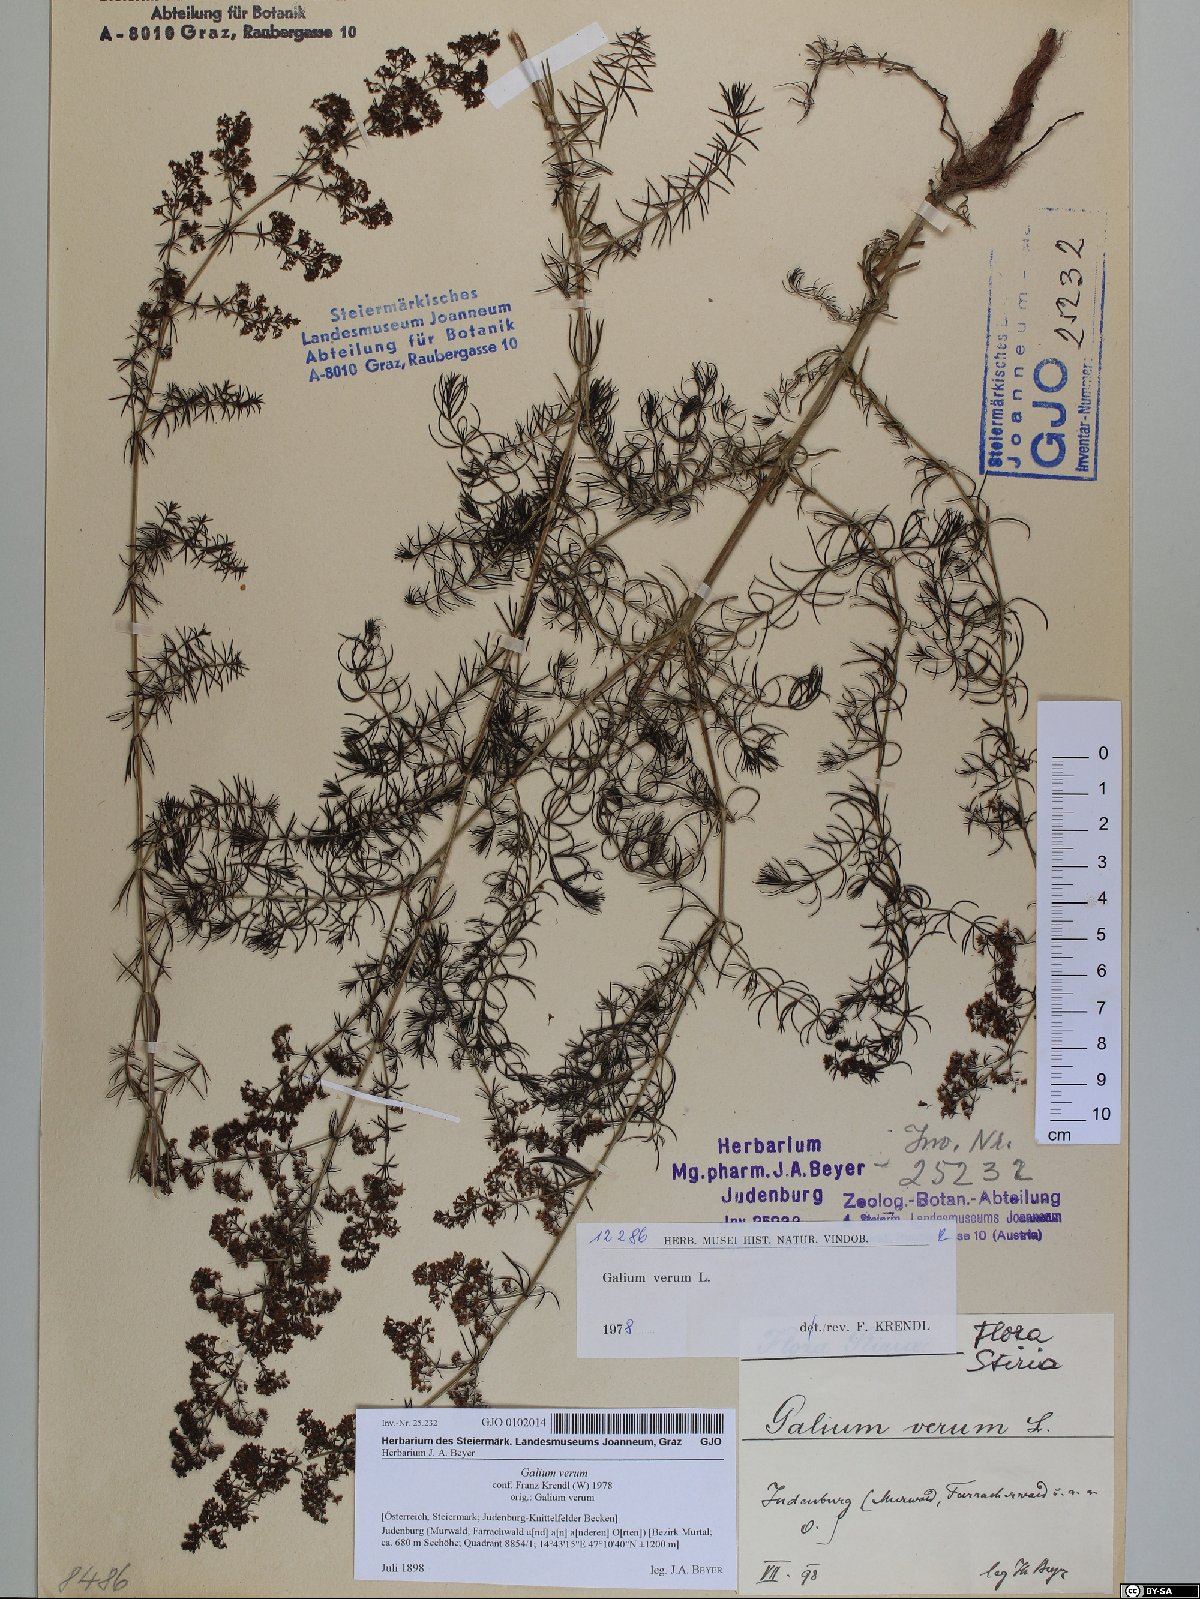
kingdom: Plantae
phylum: Tracheophyta
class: Magnoliopsida
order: Gentianales
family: Rubiaceae
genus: Galium
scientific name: Galium verum
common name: Lady's bedstraw
